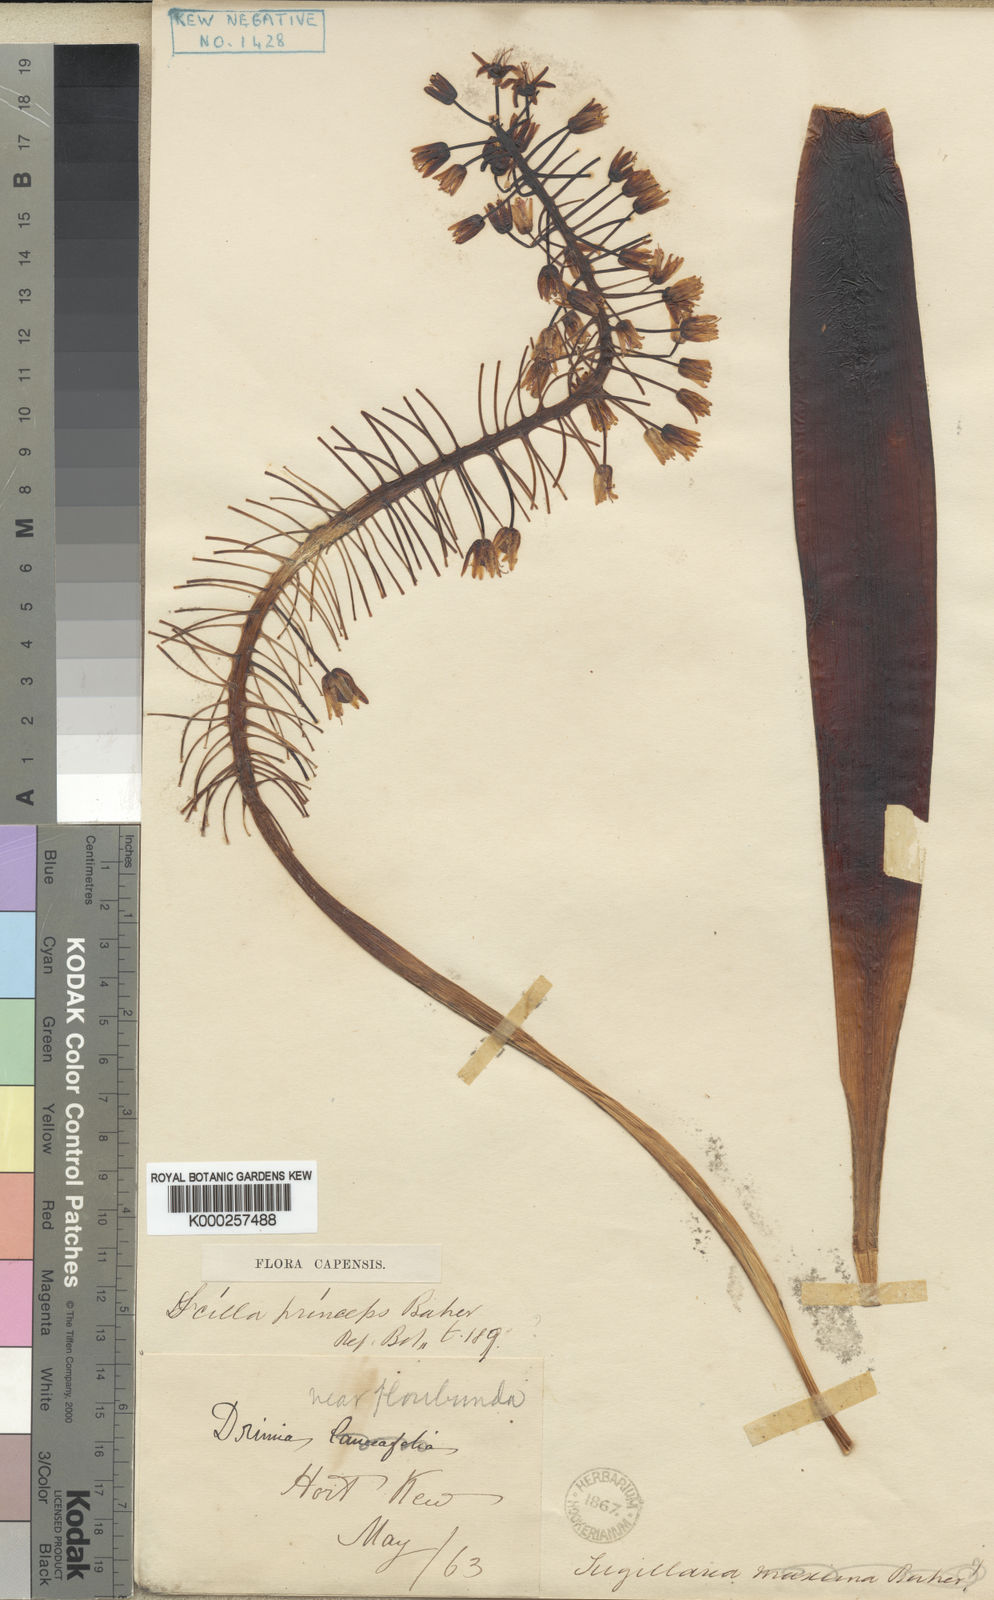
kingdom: Plantae
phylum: Tracheophyta
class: Liliopsida
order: Asparagales
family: Asparagaceae
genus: Ledebouria
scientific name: Ledebouria floribunda
